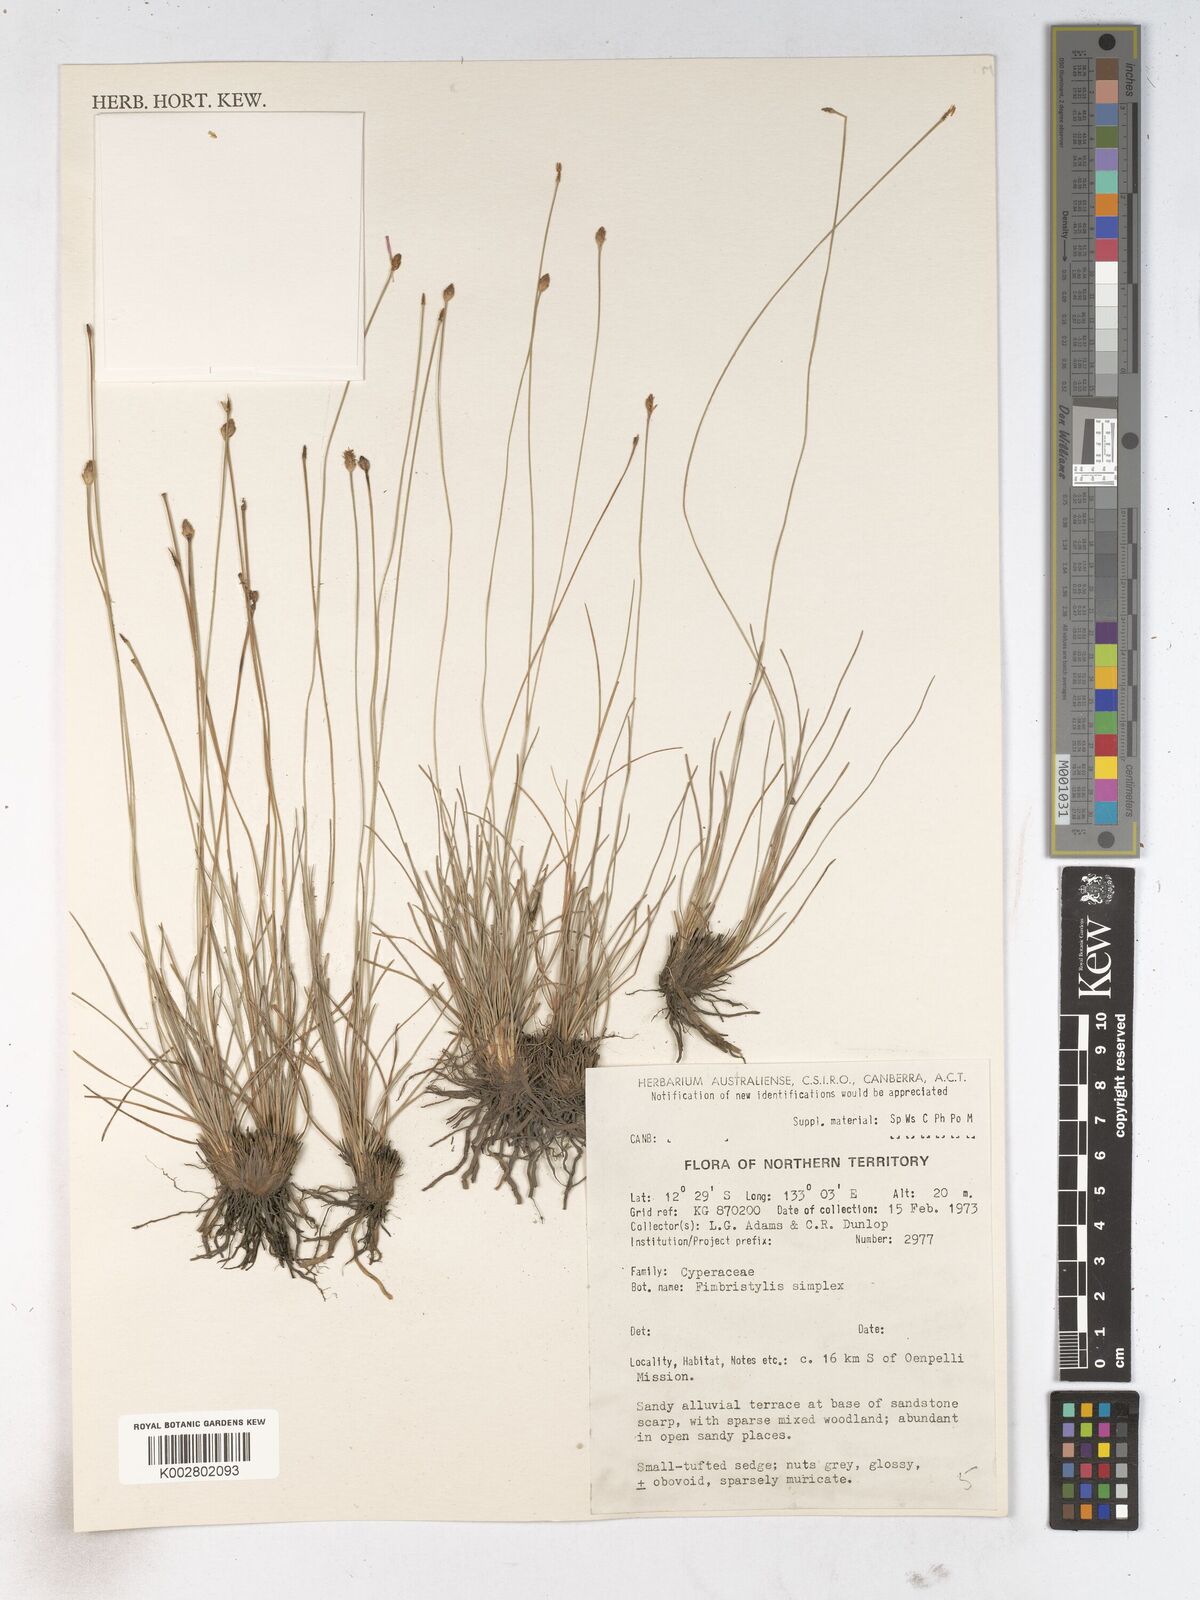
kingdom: Plantae
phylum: Tracheophyta
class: Liliopsida
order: Poales
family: Cyperaceae
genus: Fimbristylis
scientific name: Fimbristylis simplex
